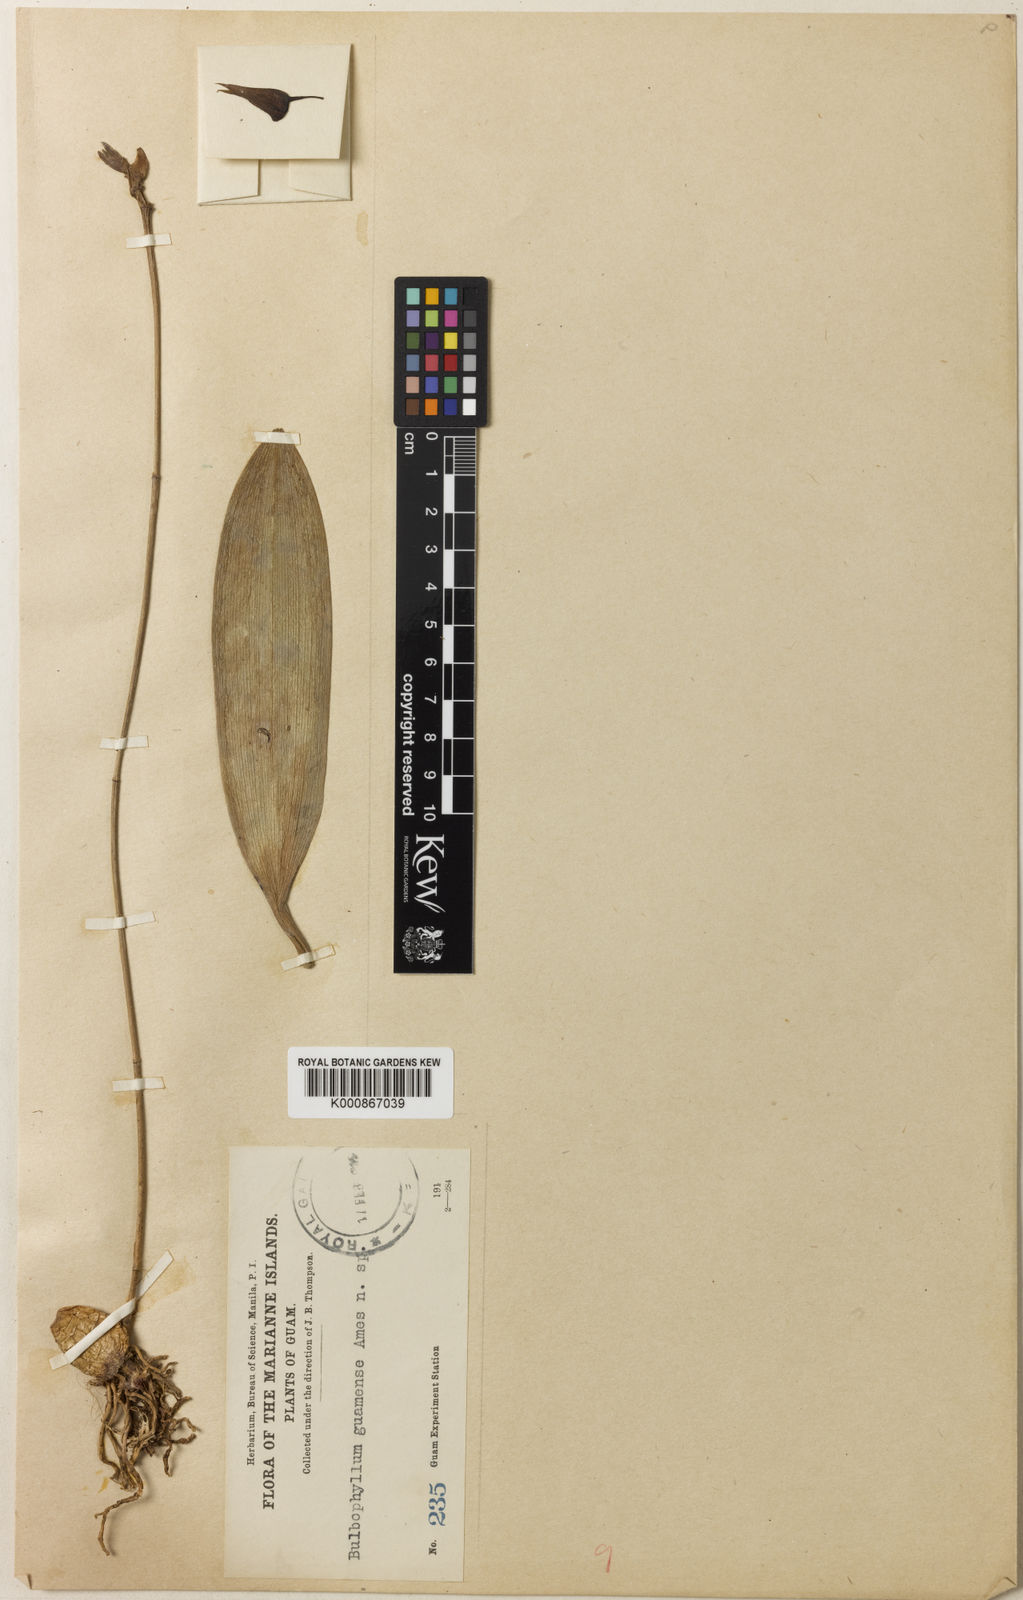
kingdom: Plantae
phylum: Tracheophyta
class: Liliopsida
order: Asparagales
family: Orchidaceae
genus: Bulbophyllum
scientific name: Bulbophyllum guamense
